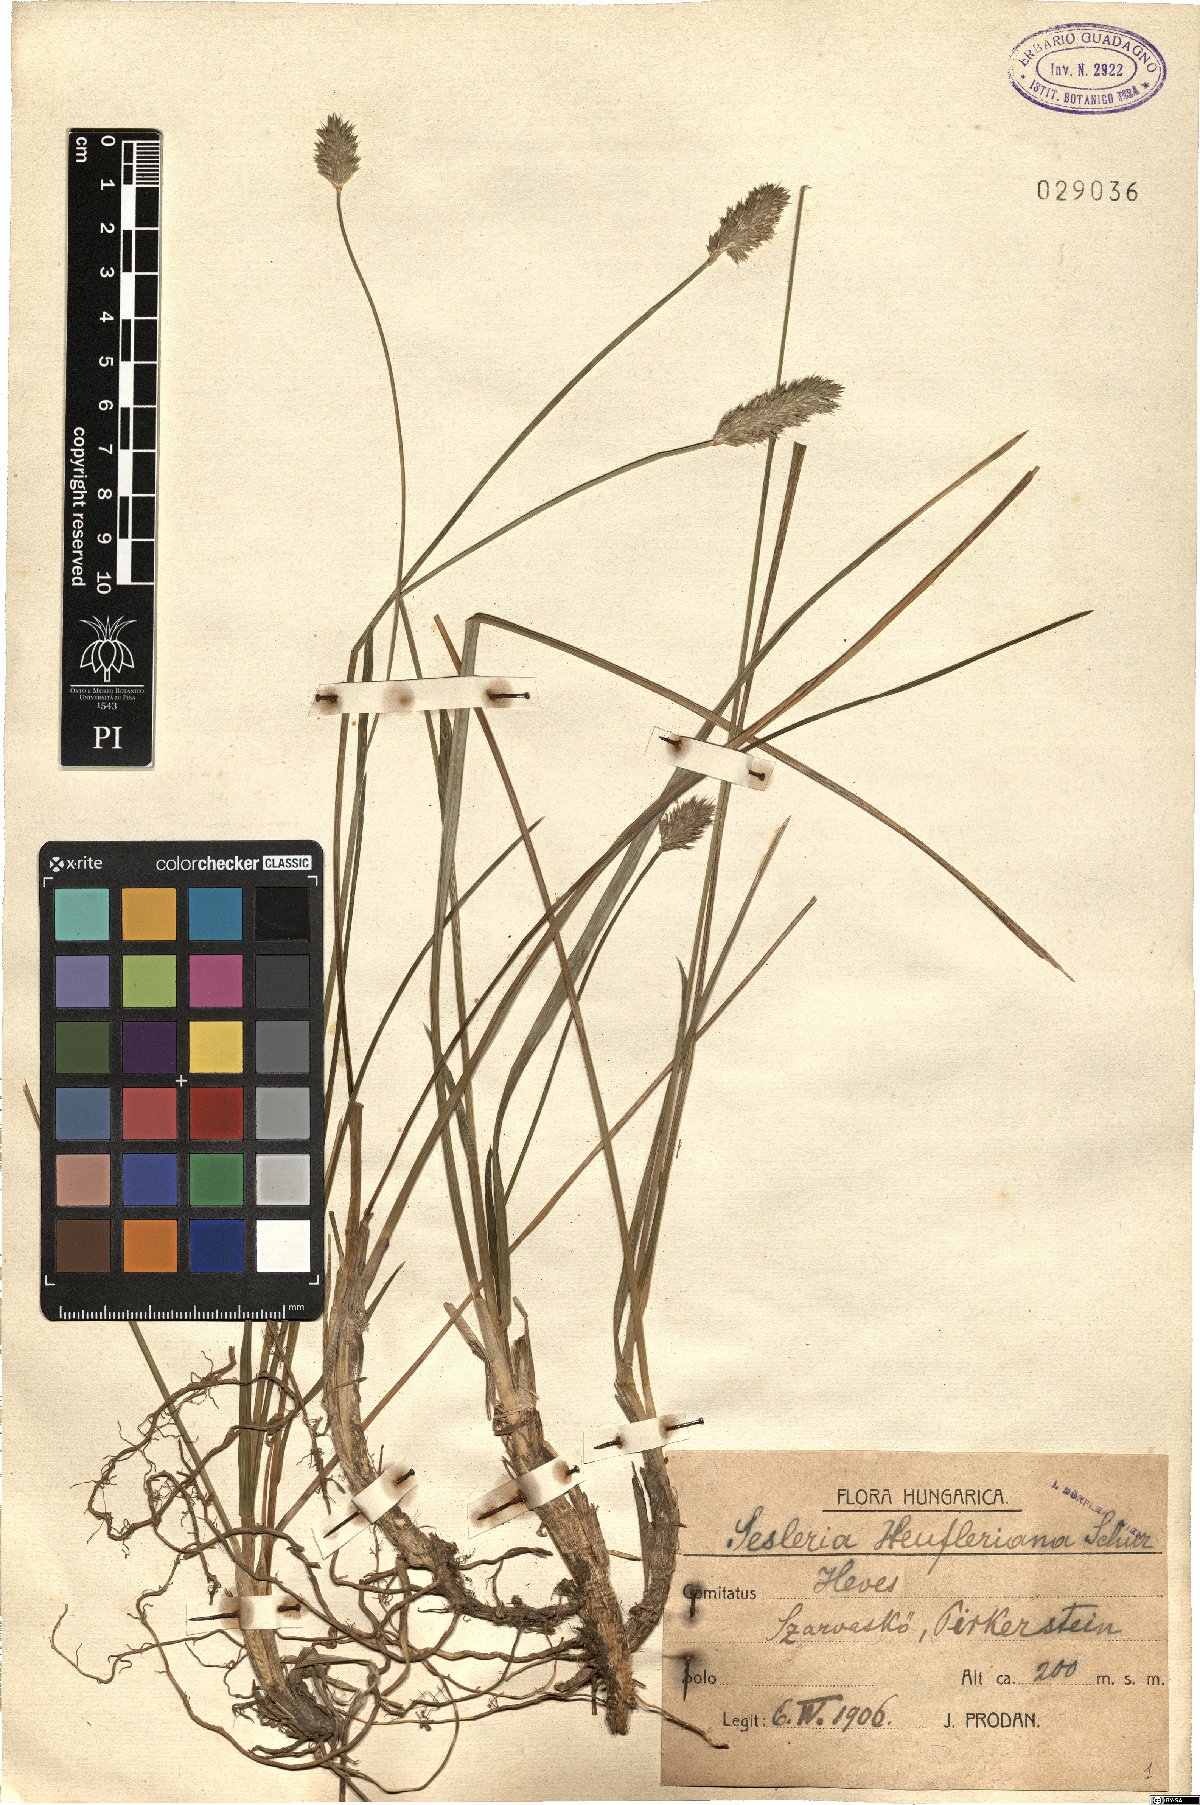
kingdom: Plantae
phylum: Tracheophyta
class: Liliopsida
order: Poales
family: Poaceae
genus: Sesleria
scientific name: Sesleria heufleriana
